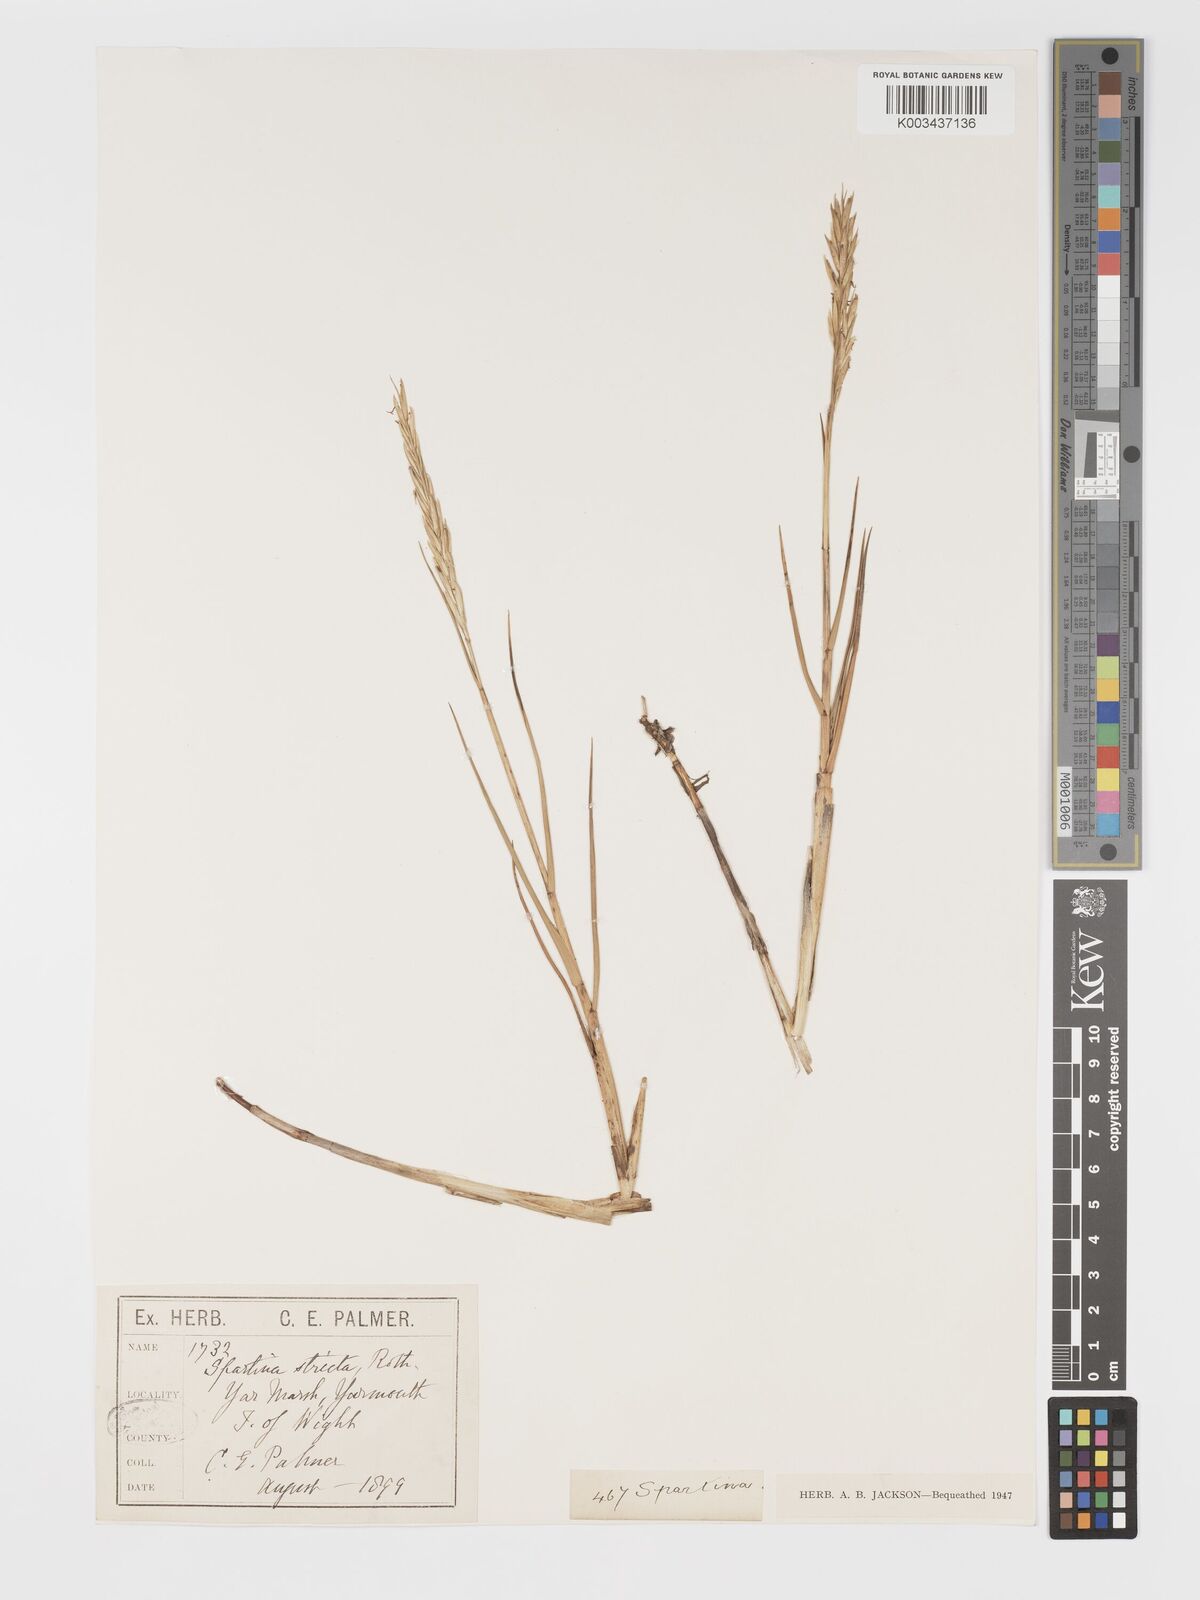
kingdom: Plantae
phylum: Tracheophyta
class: Liliopsida
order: Poales
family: Poaceae
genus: Sporobolus
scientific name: Sporobolus maritimus
